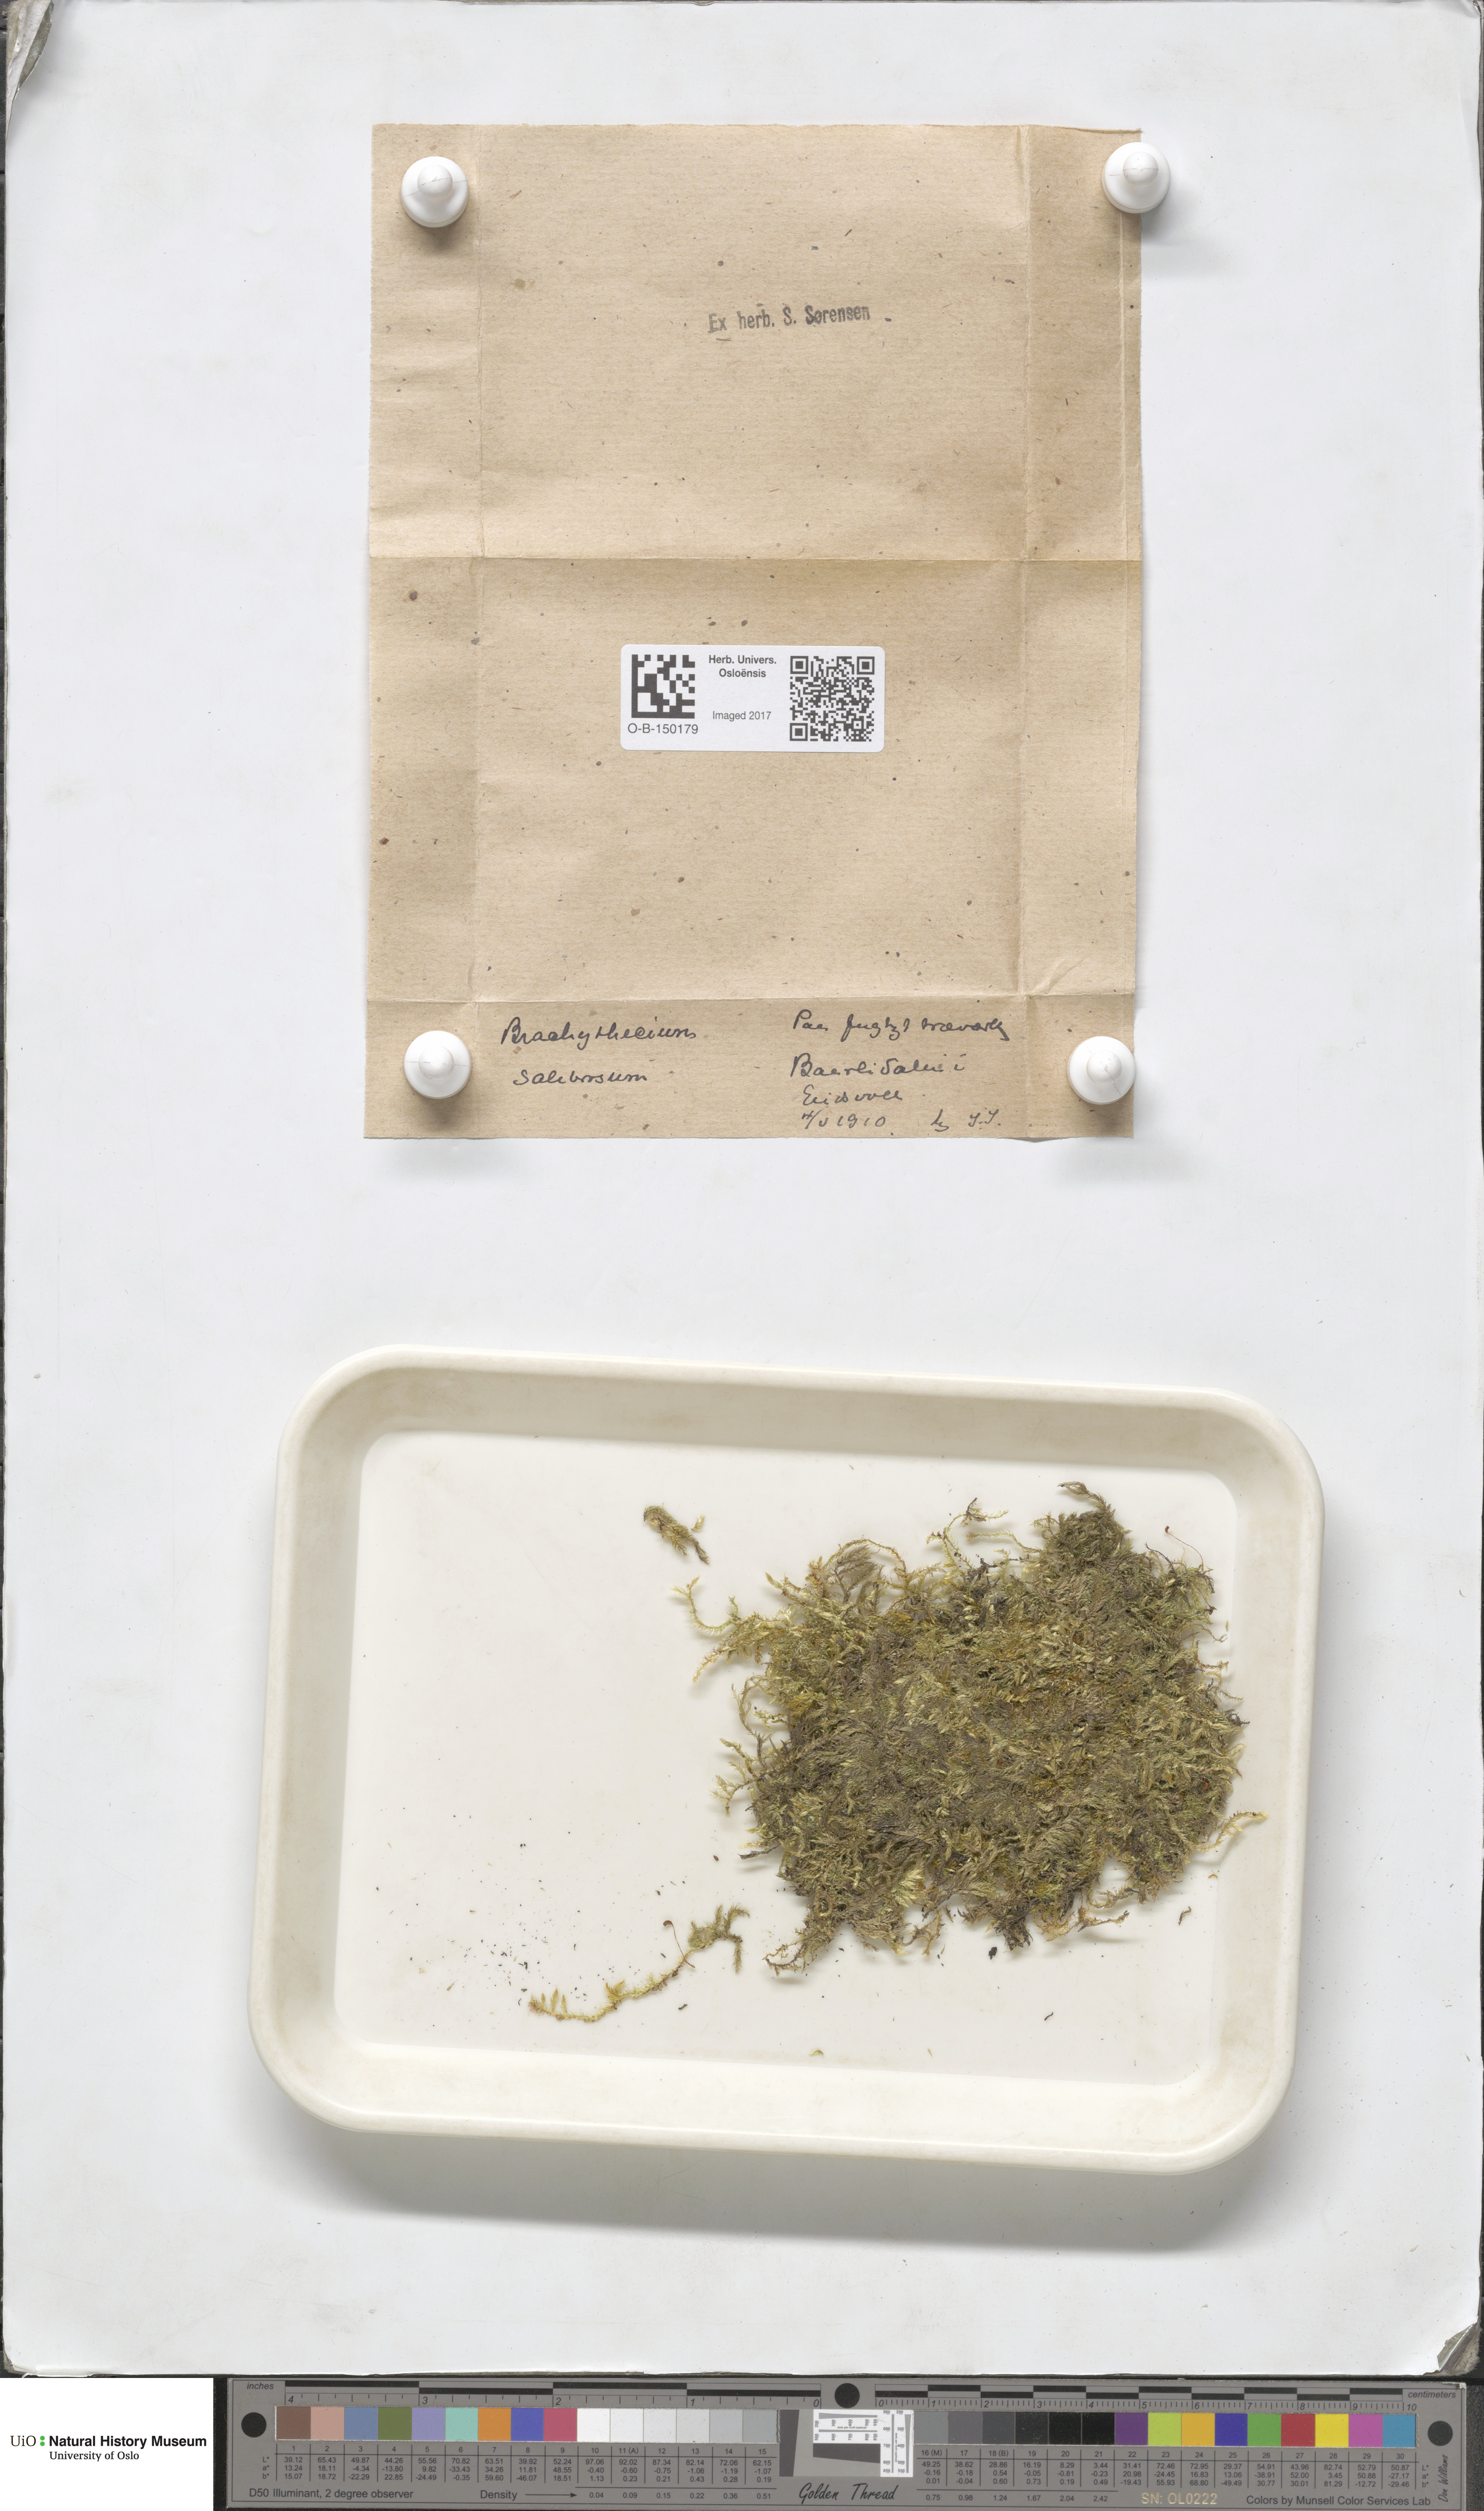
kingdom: Plantae
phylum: Bryophyta
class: Bryopsida
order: Hypnales
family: Brachytheciaceae
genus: Brachythecium
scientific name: Brachythecium salebrosum
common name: Smooth-stalk feather-moss
